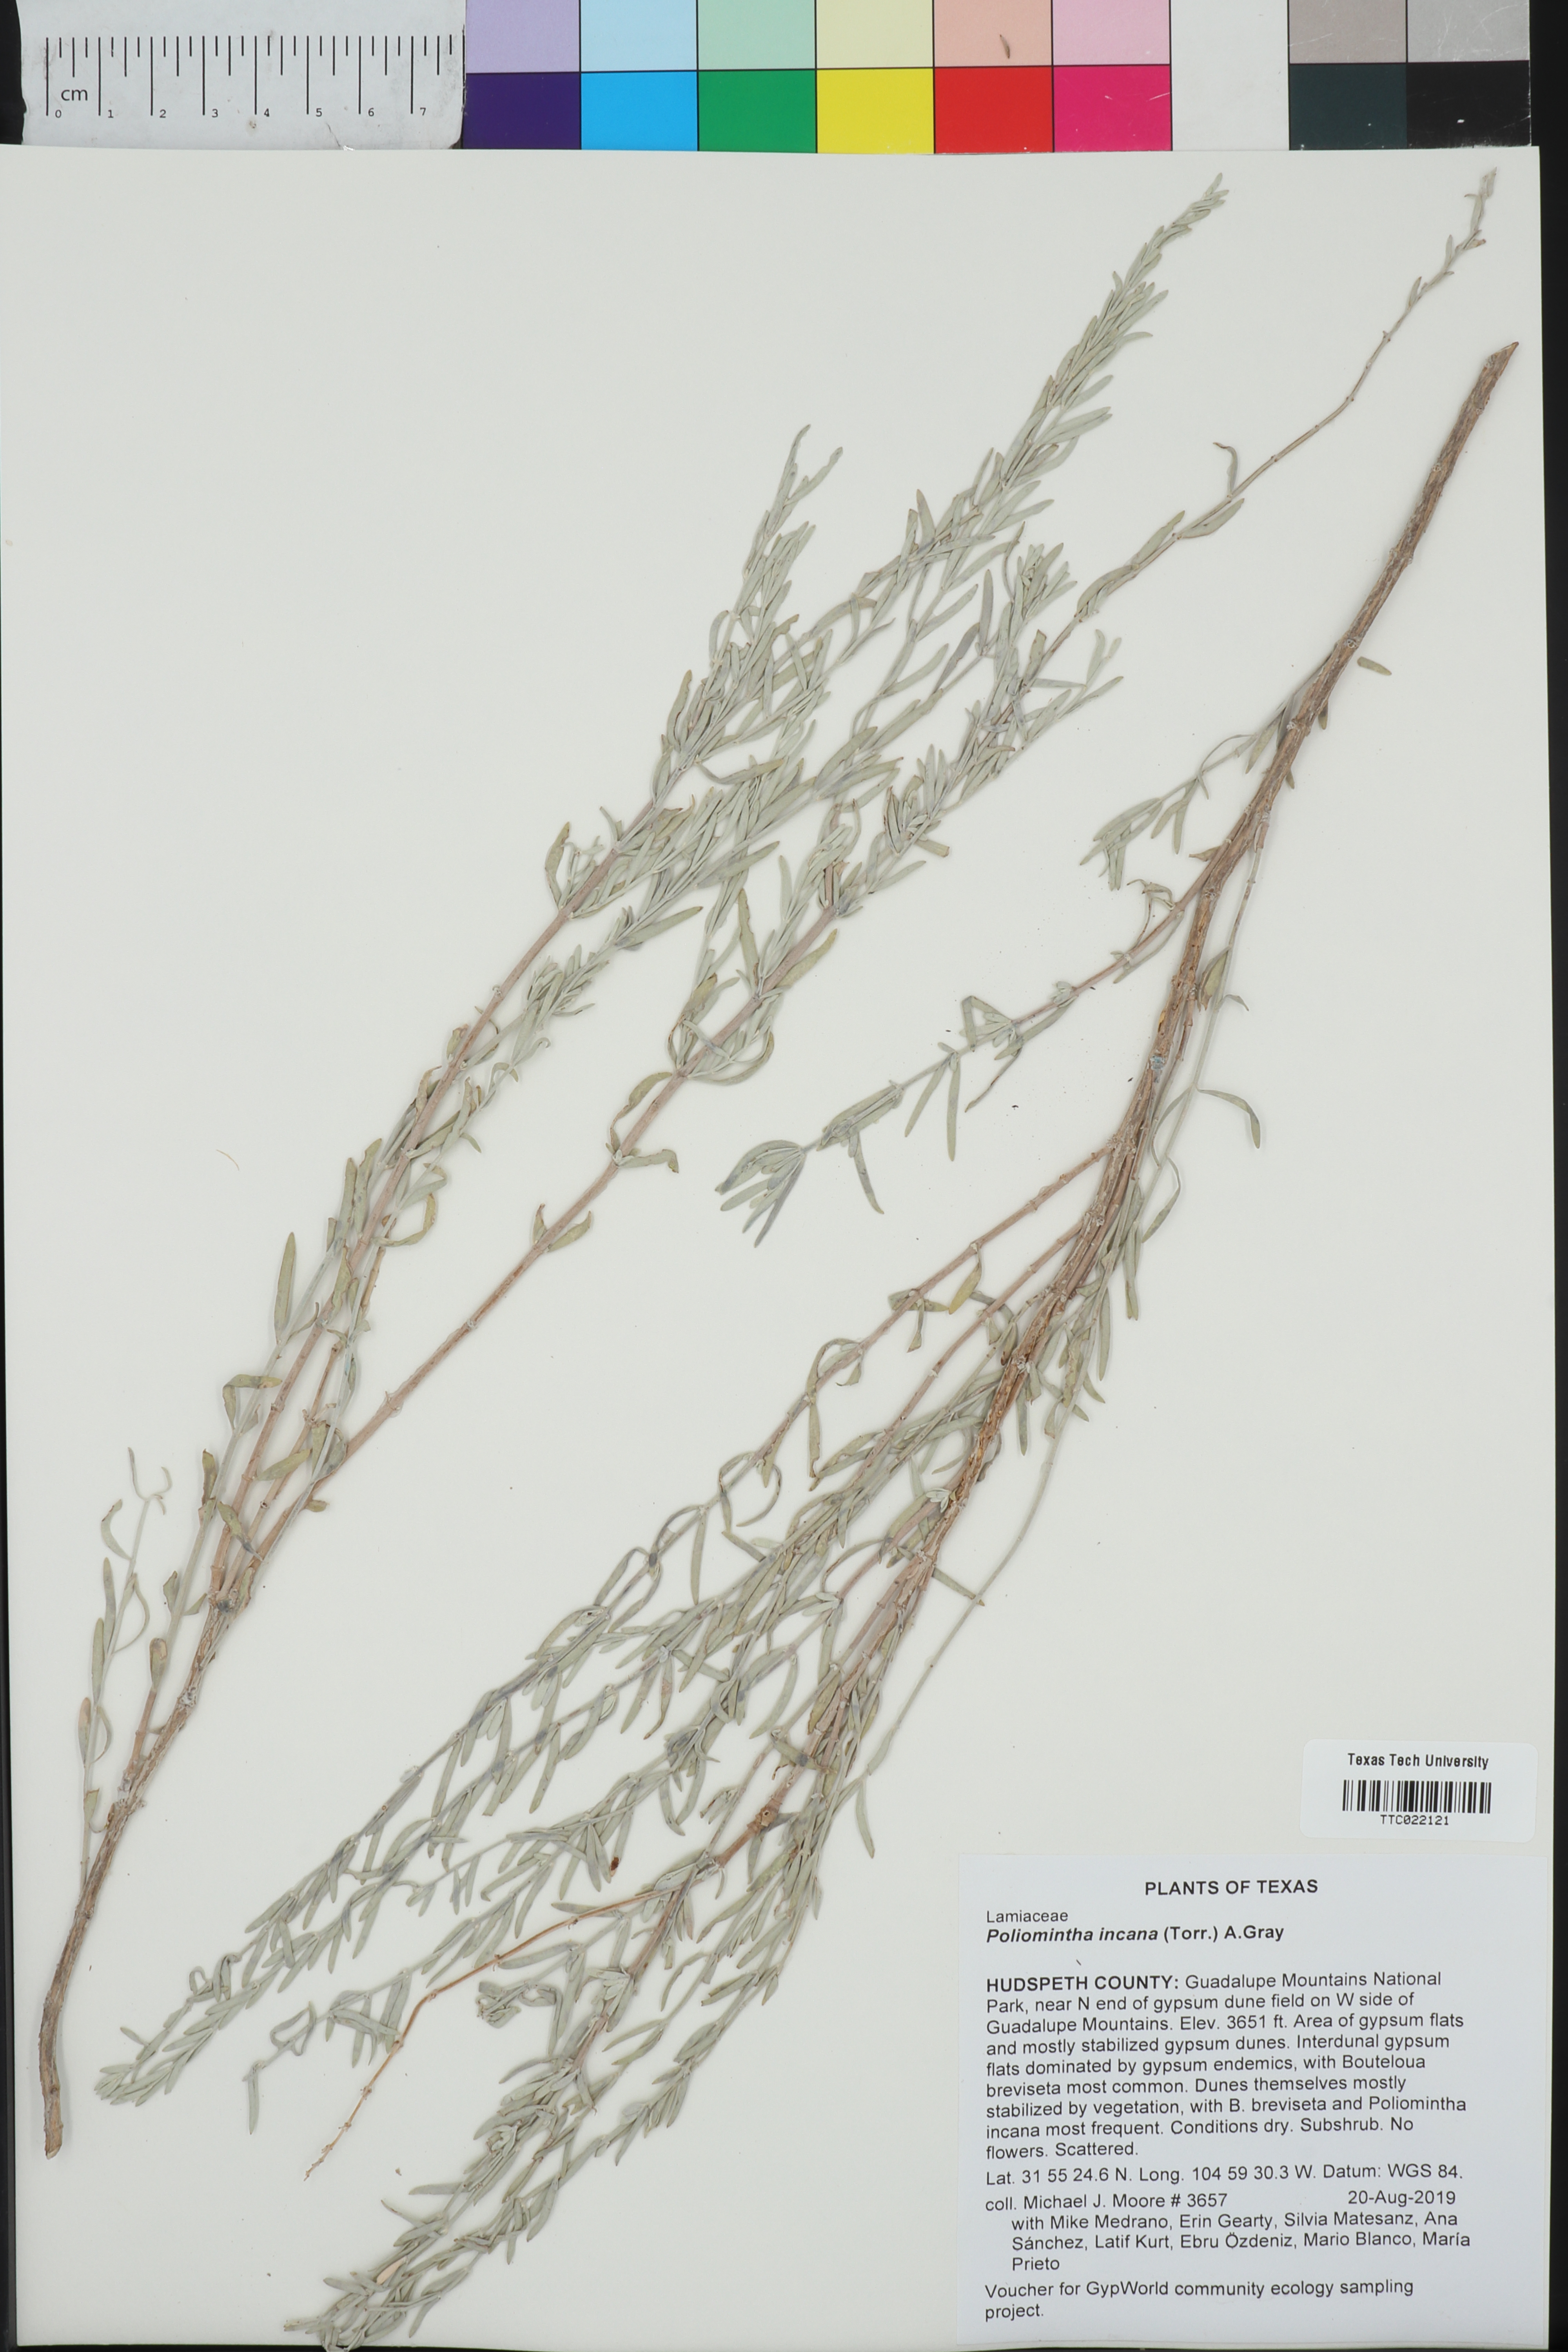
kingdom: Plantae
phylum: Tracheophyta
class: Magnoliopsida
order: Lamiales
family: Lamiaceae
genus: Poliomintha
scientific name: Poliomintha incana
